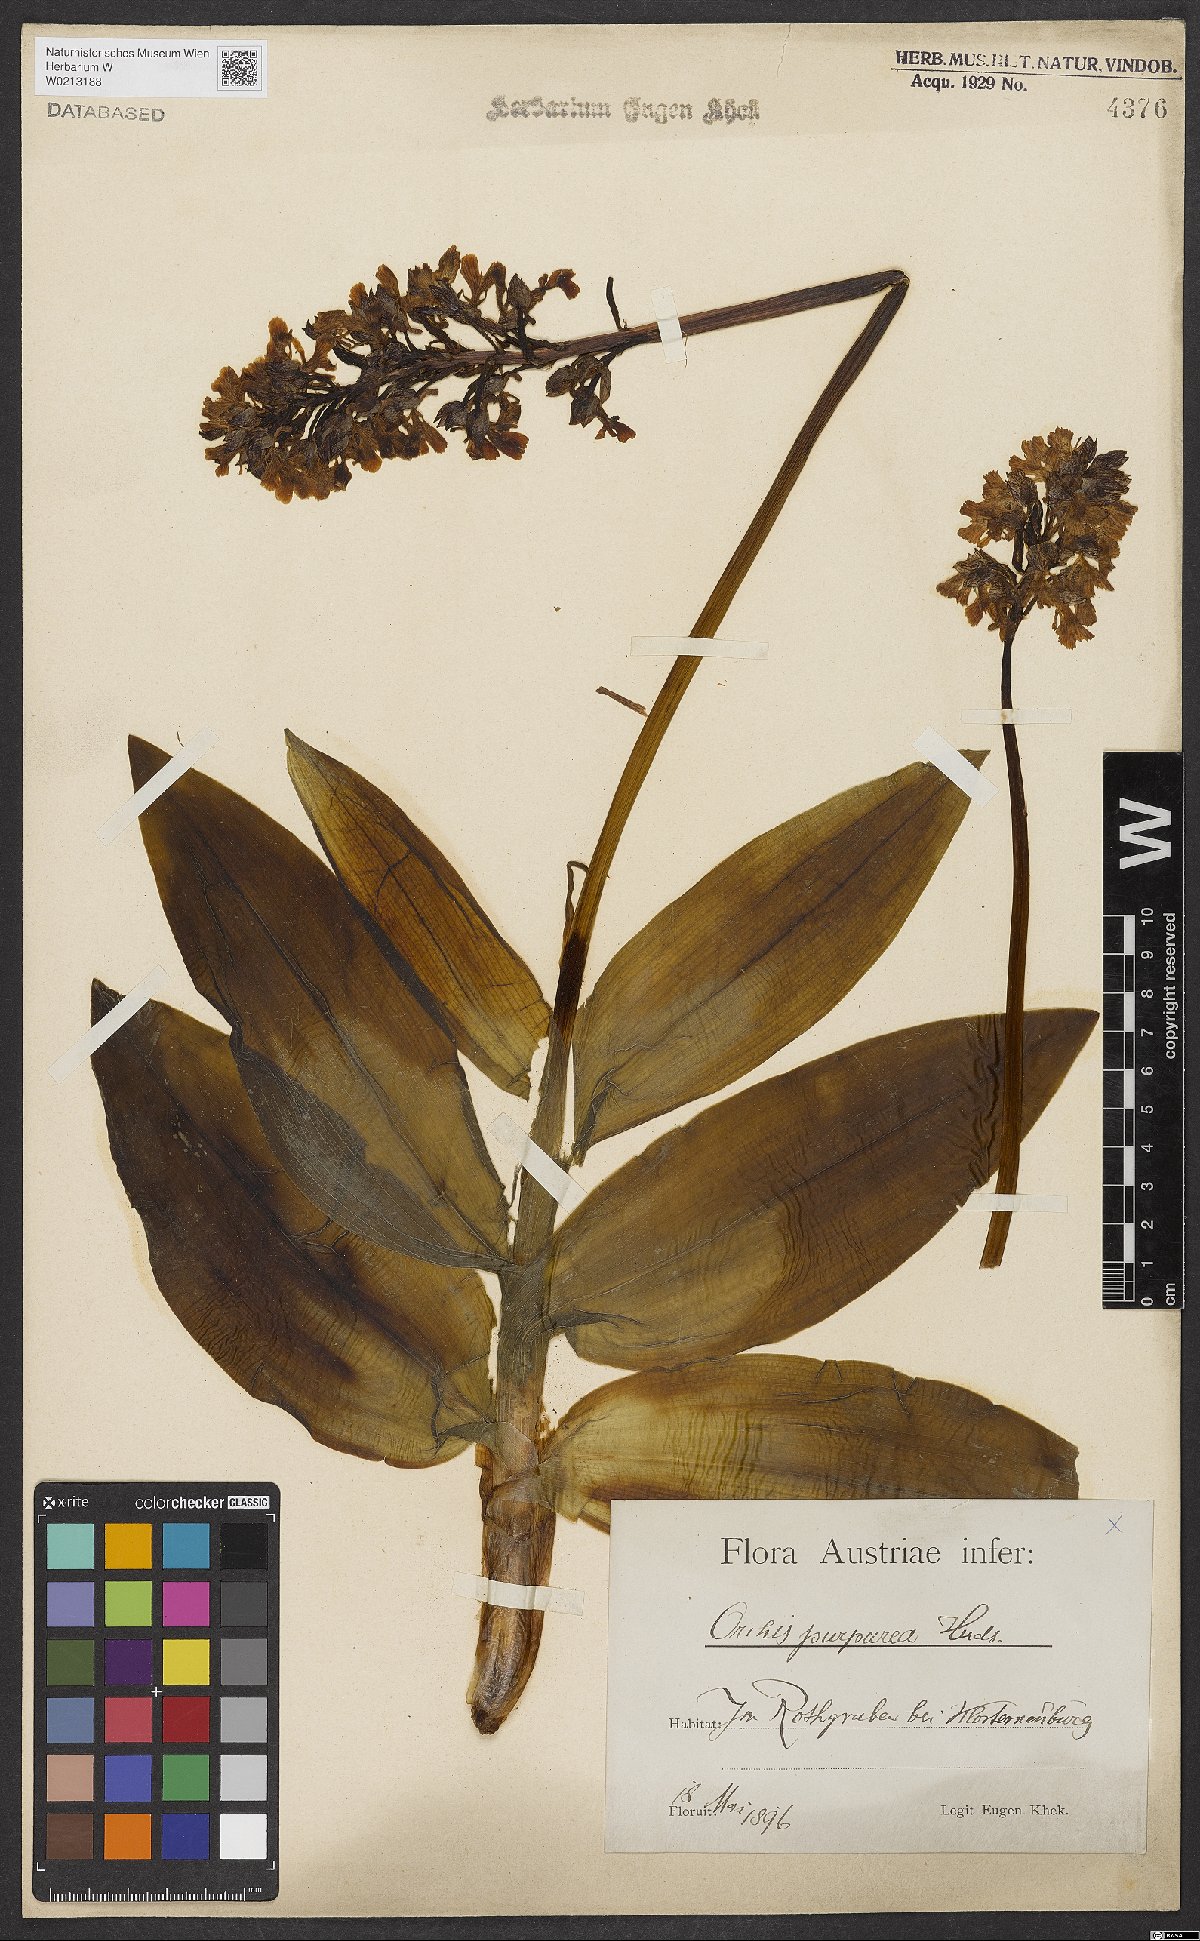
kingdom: Plantae
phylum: Tracheophyta
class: Liliopsida
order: Asparagales
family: Orchidaceae
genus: Orchis
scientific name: Orchis purpurea
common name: Lady orchid
